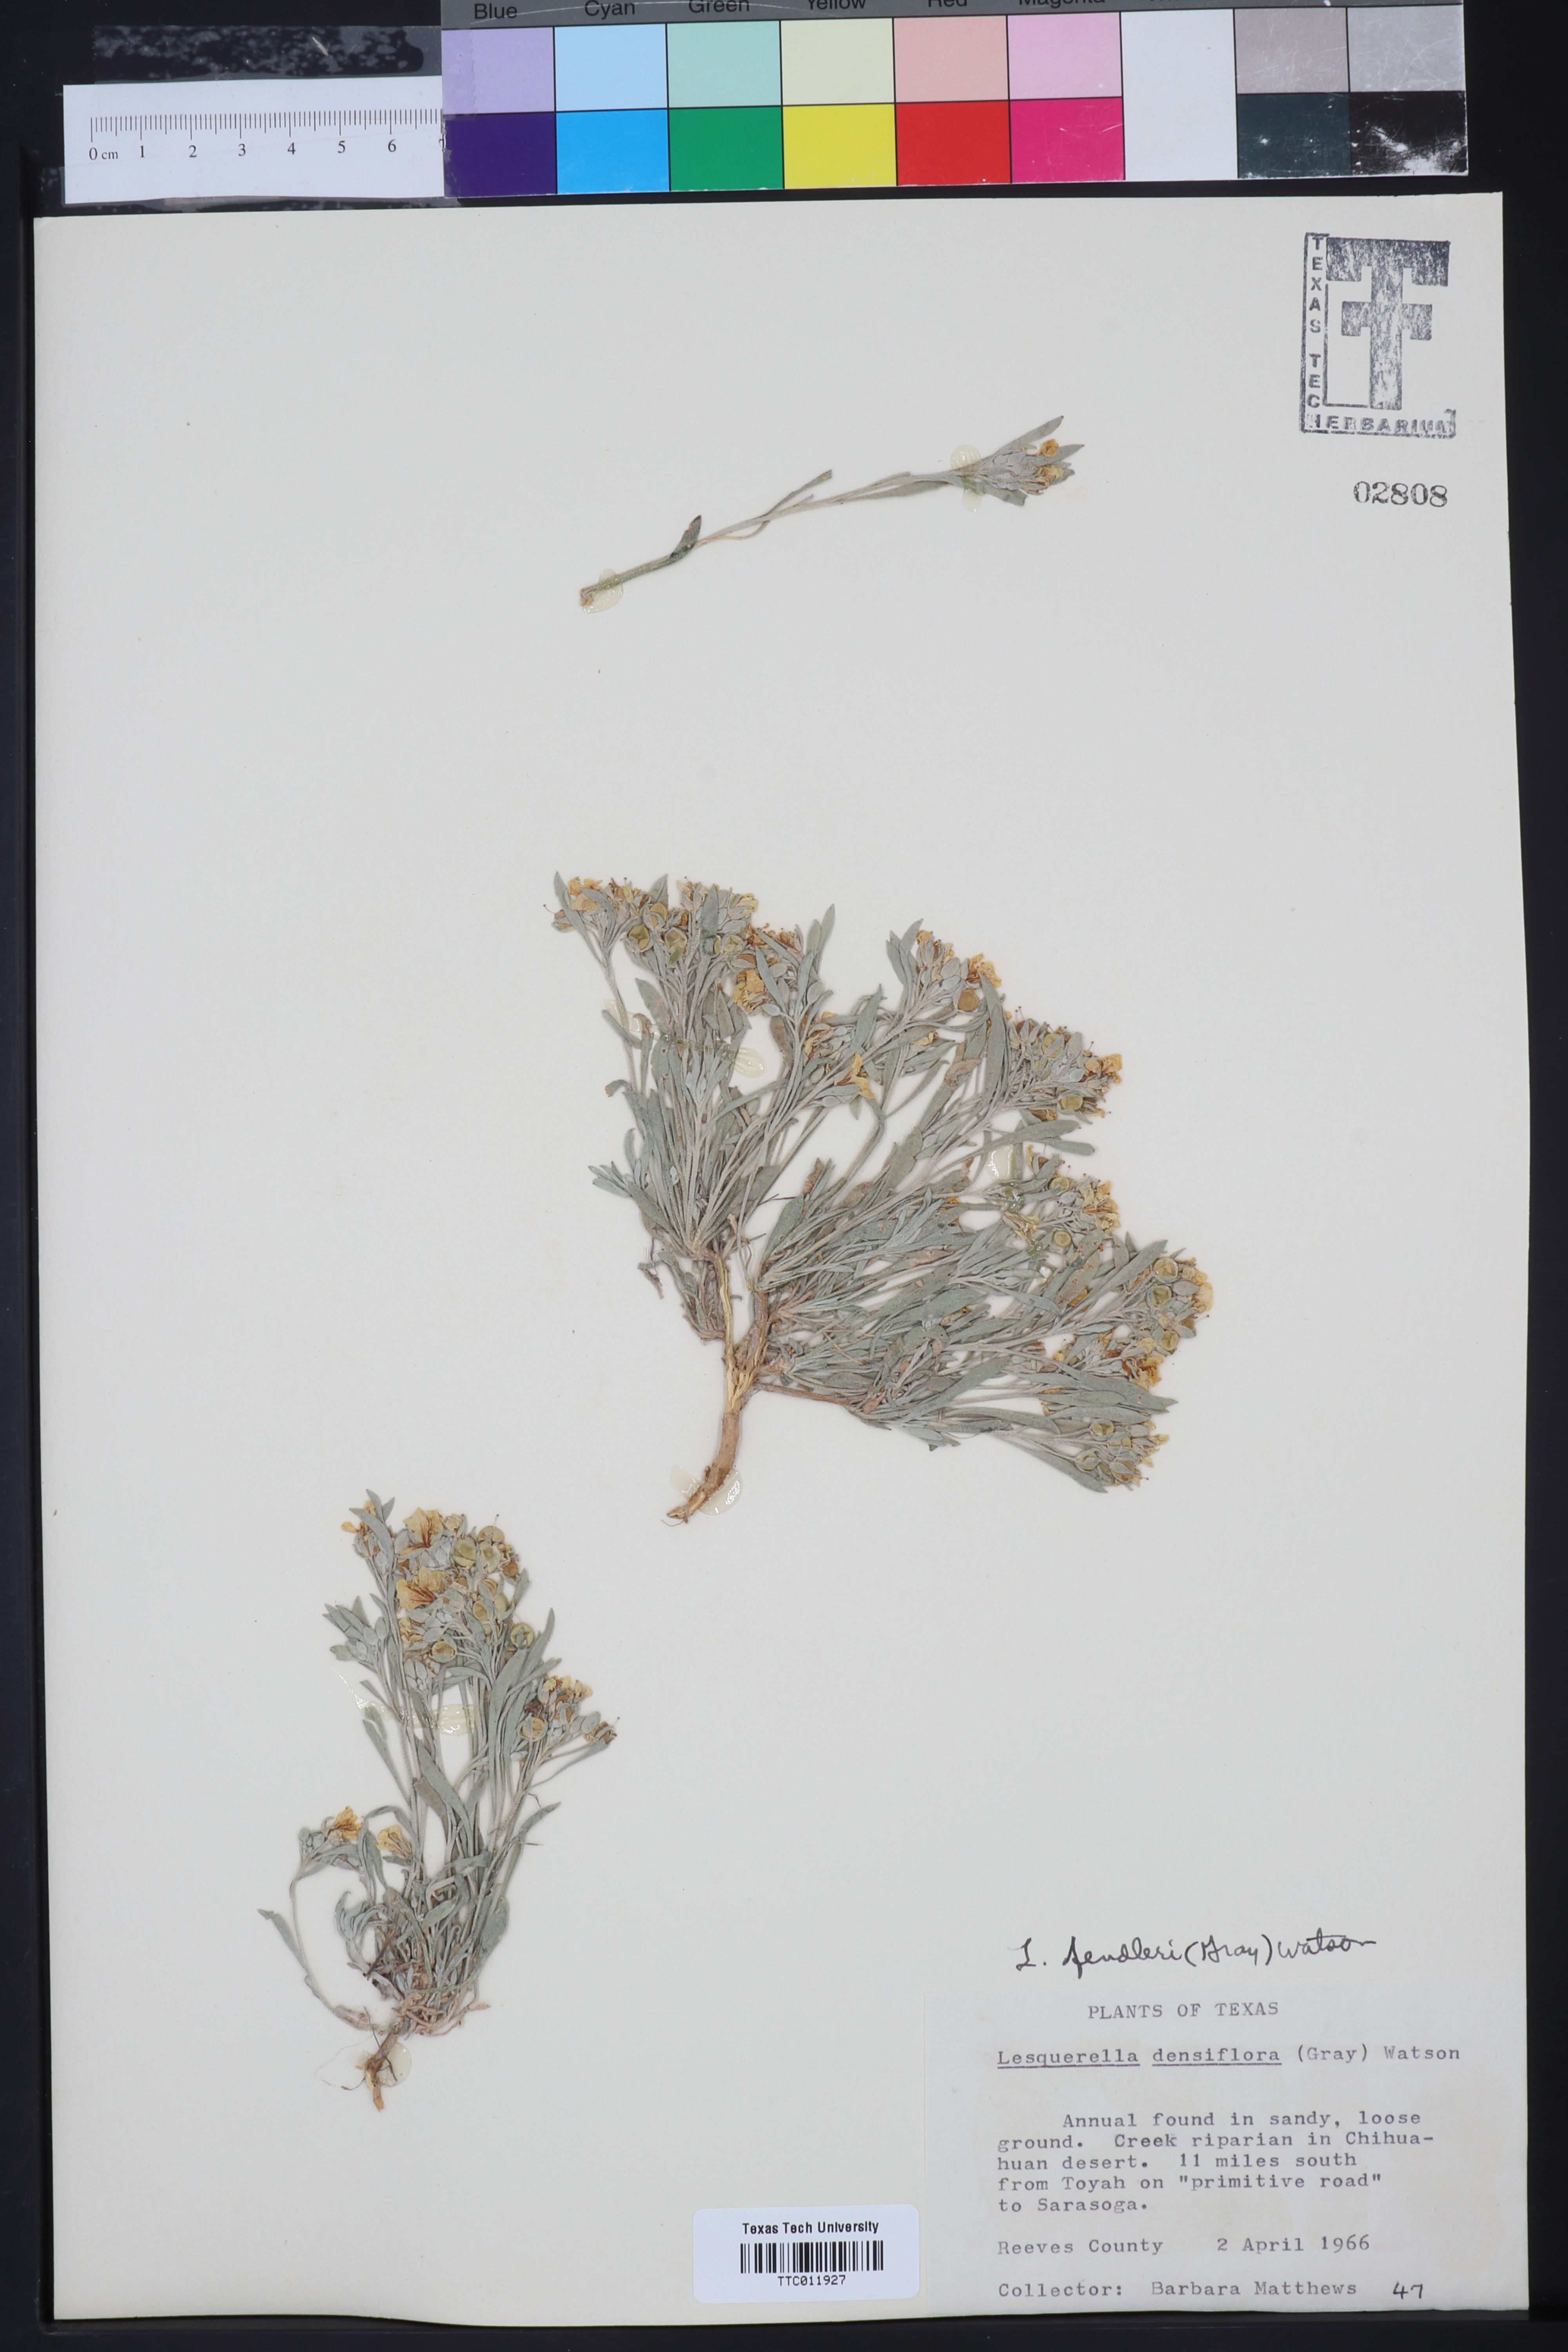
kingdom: Plantae
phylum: Tracheophyta
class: Magnoliopsida
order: Brassicales
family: Brassicaceae
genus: Physaria
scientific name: Physaria fendleri
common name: Fendler's bladderpod
